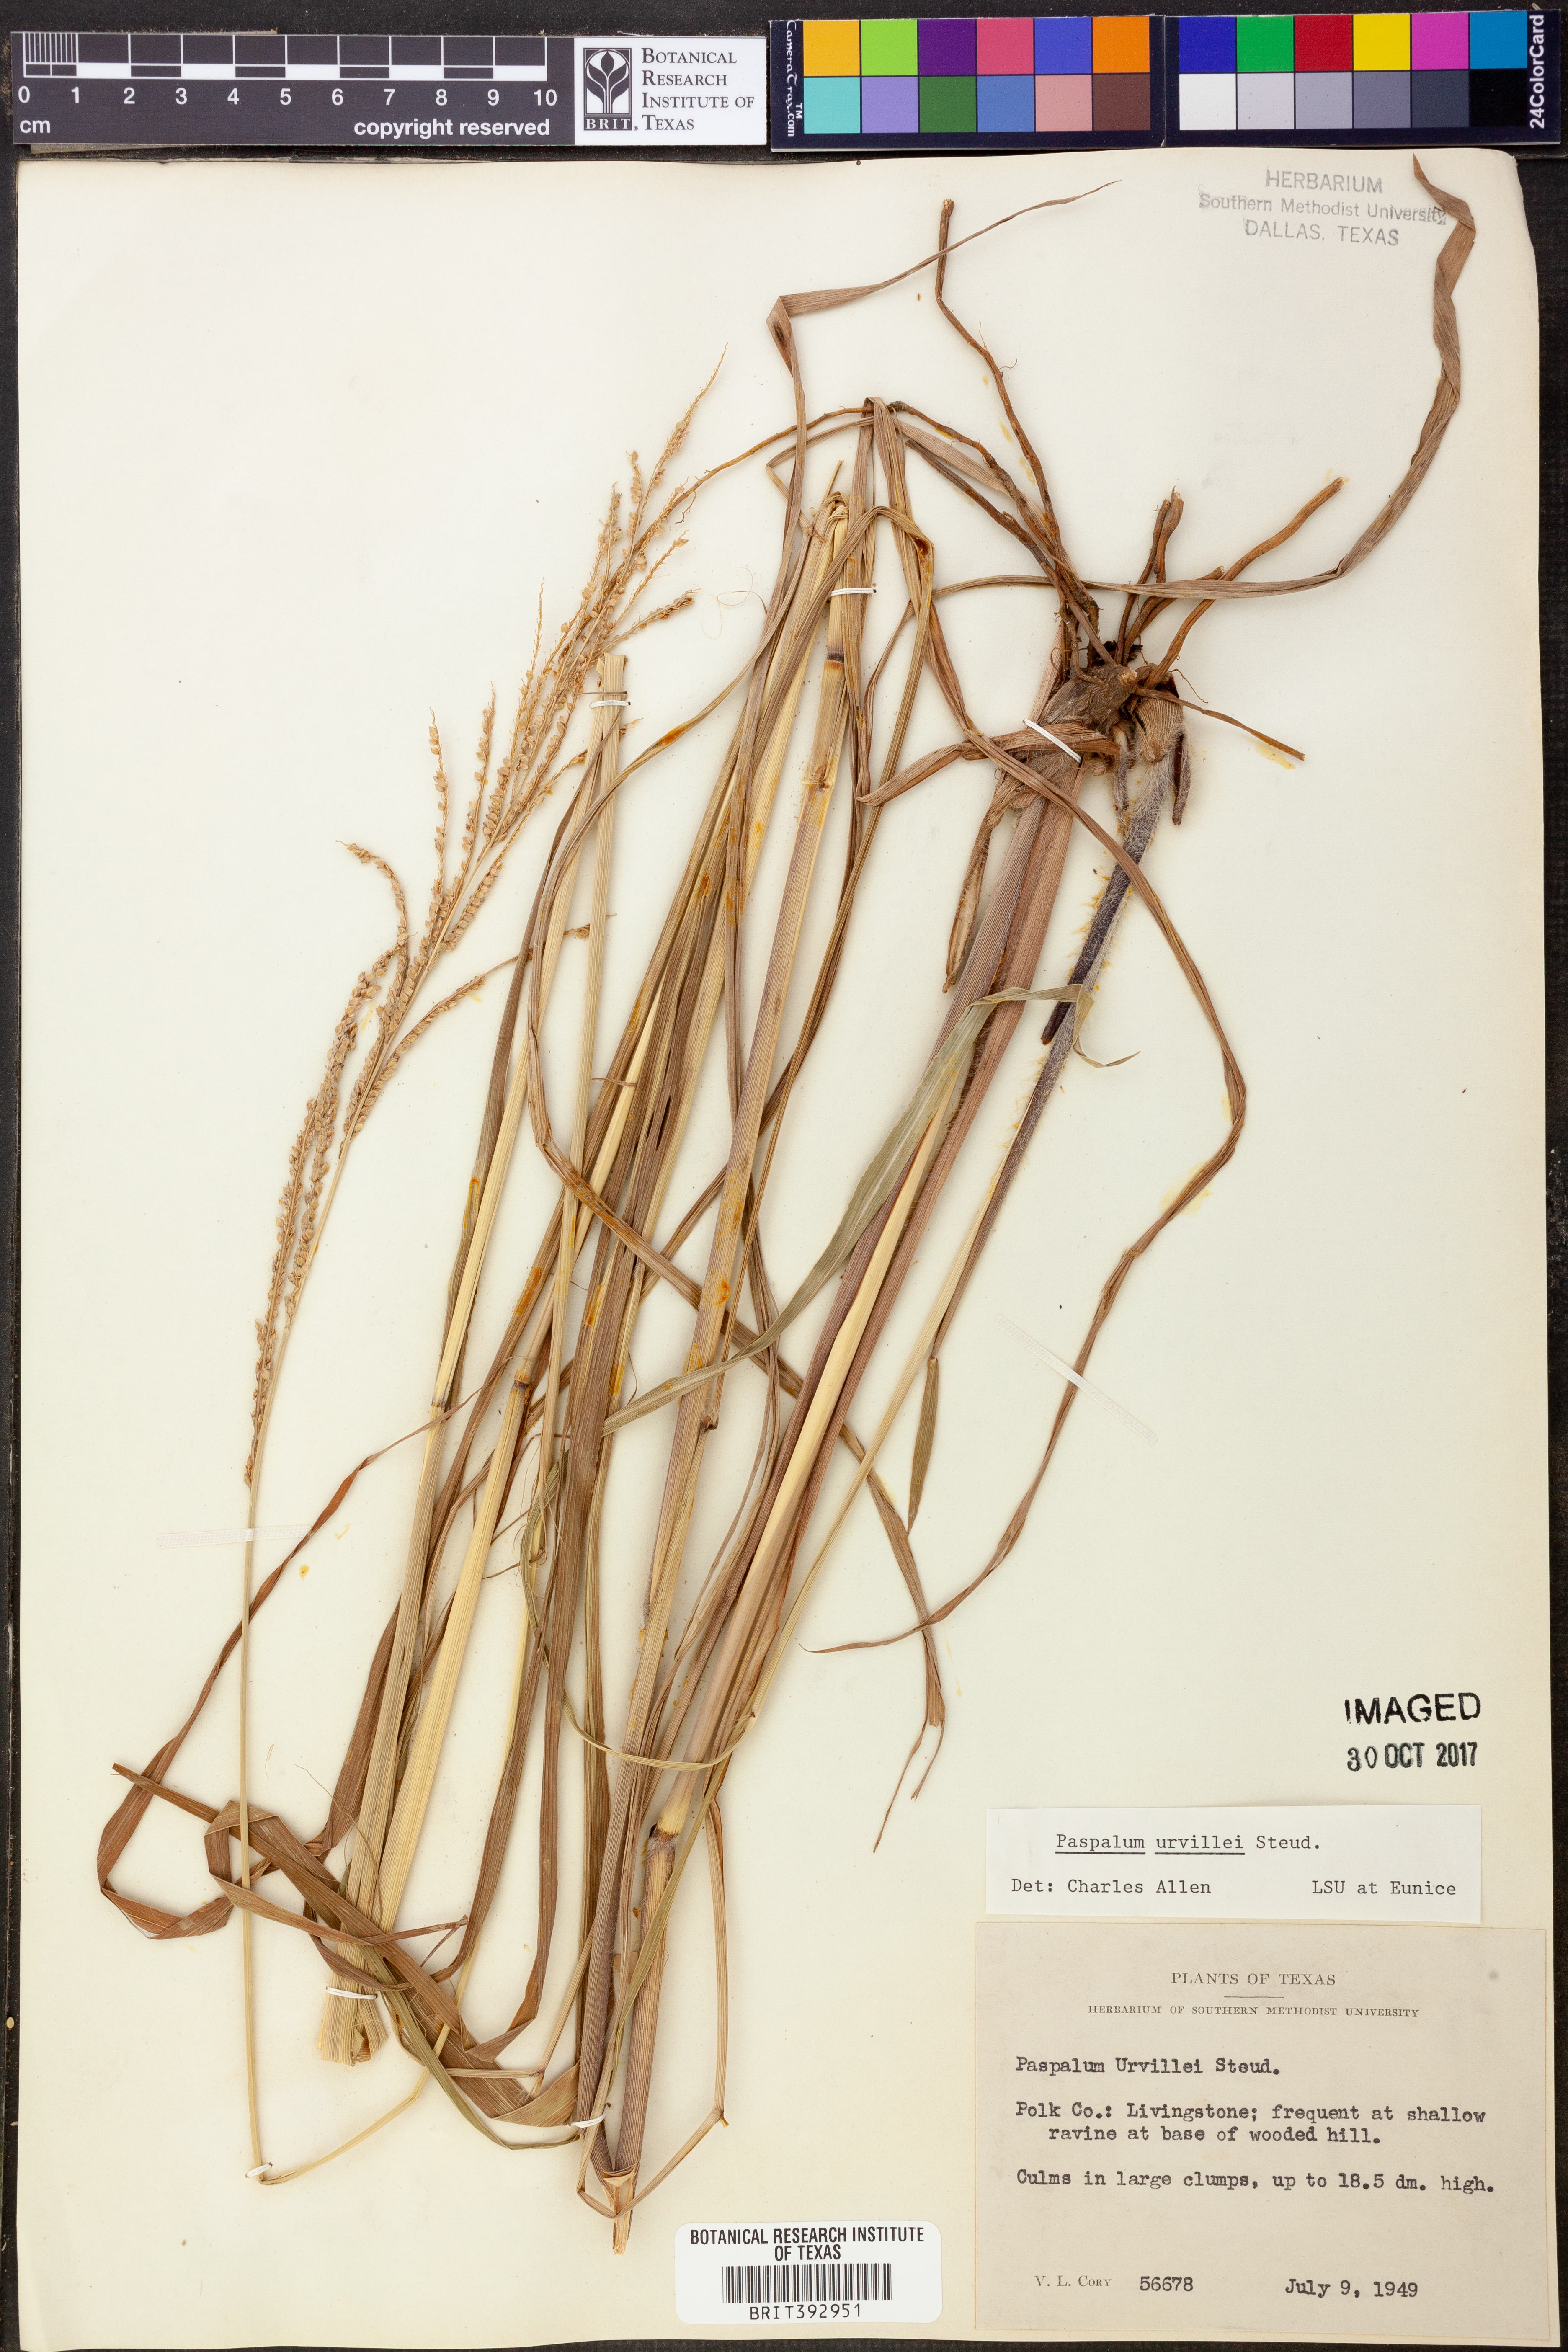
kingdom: Plantae
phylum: Tracheophyta
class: Liliopsida
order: Poales
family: Poaceae
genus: Paspalum
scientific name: Paspalum urvillei
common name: Vasey's grass
